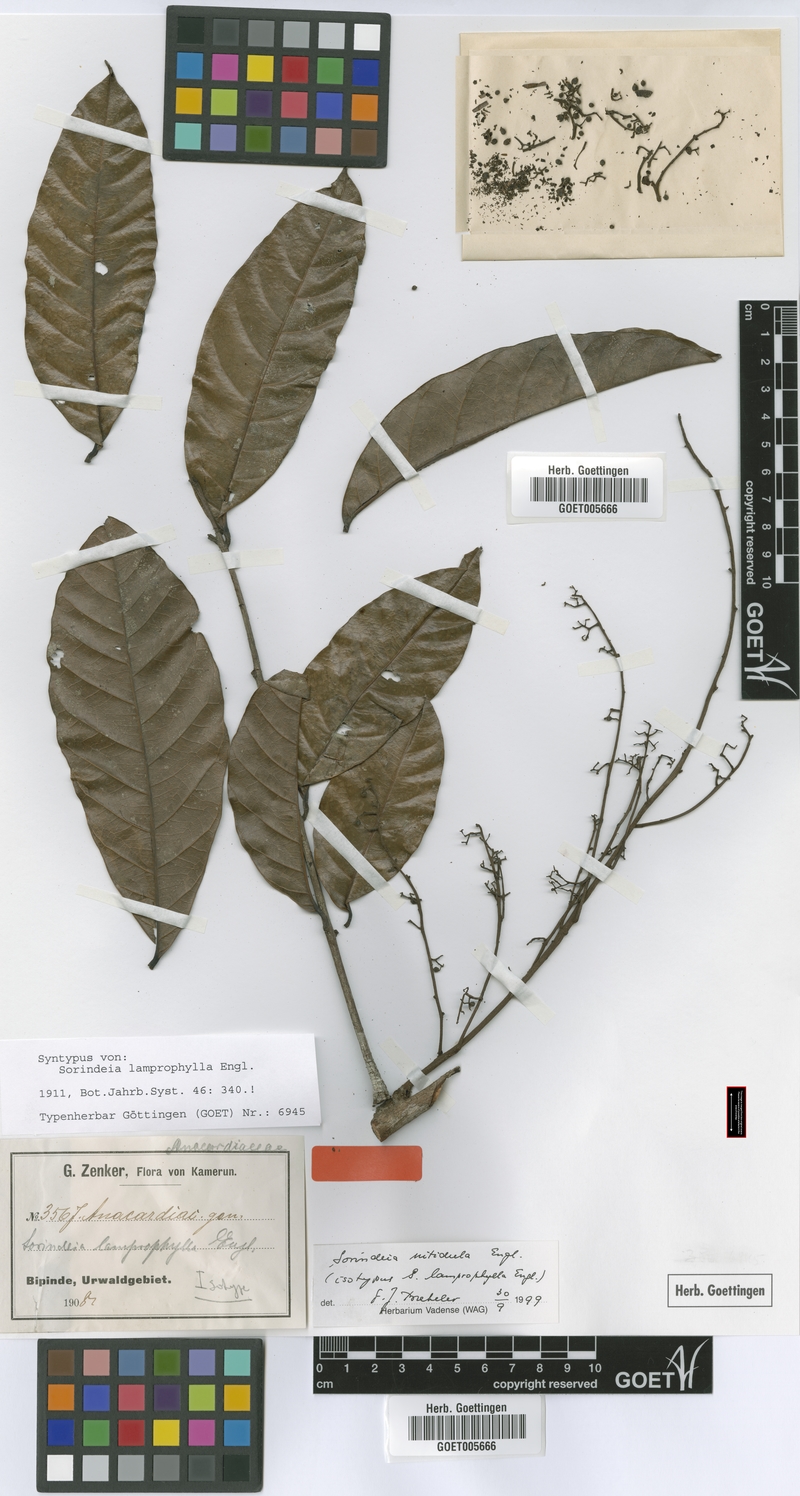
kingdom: Plantae
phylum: Tracheophyta
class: Magnoliopsida
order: Sapindales
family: Anacardiaceae
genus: Sorindeia
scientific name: Sorindeia africana
